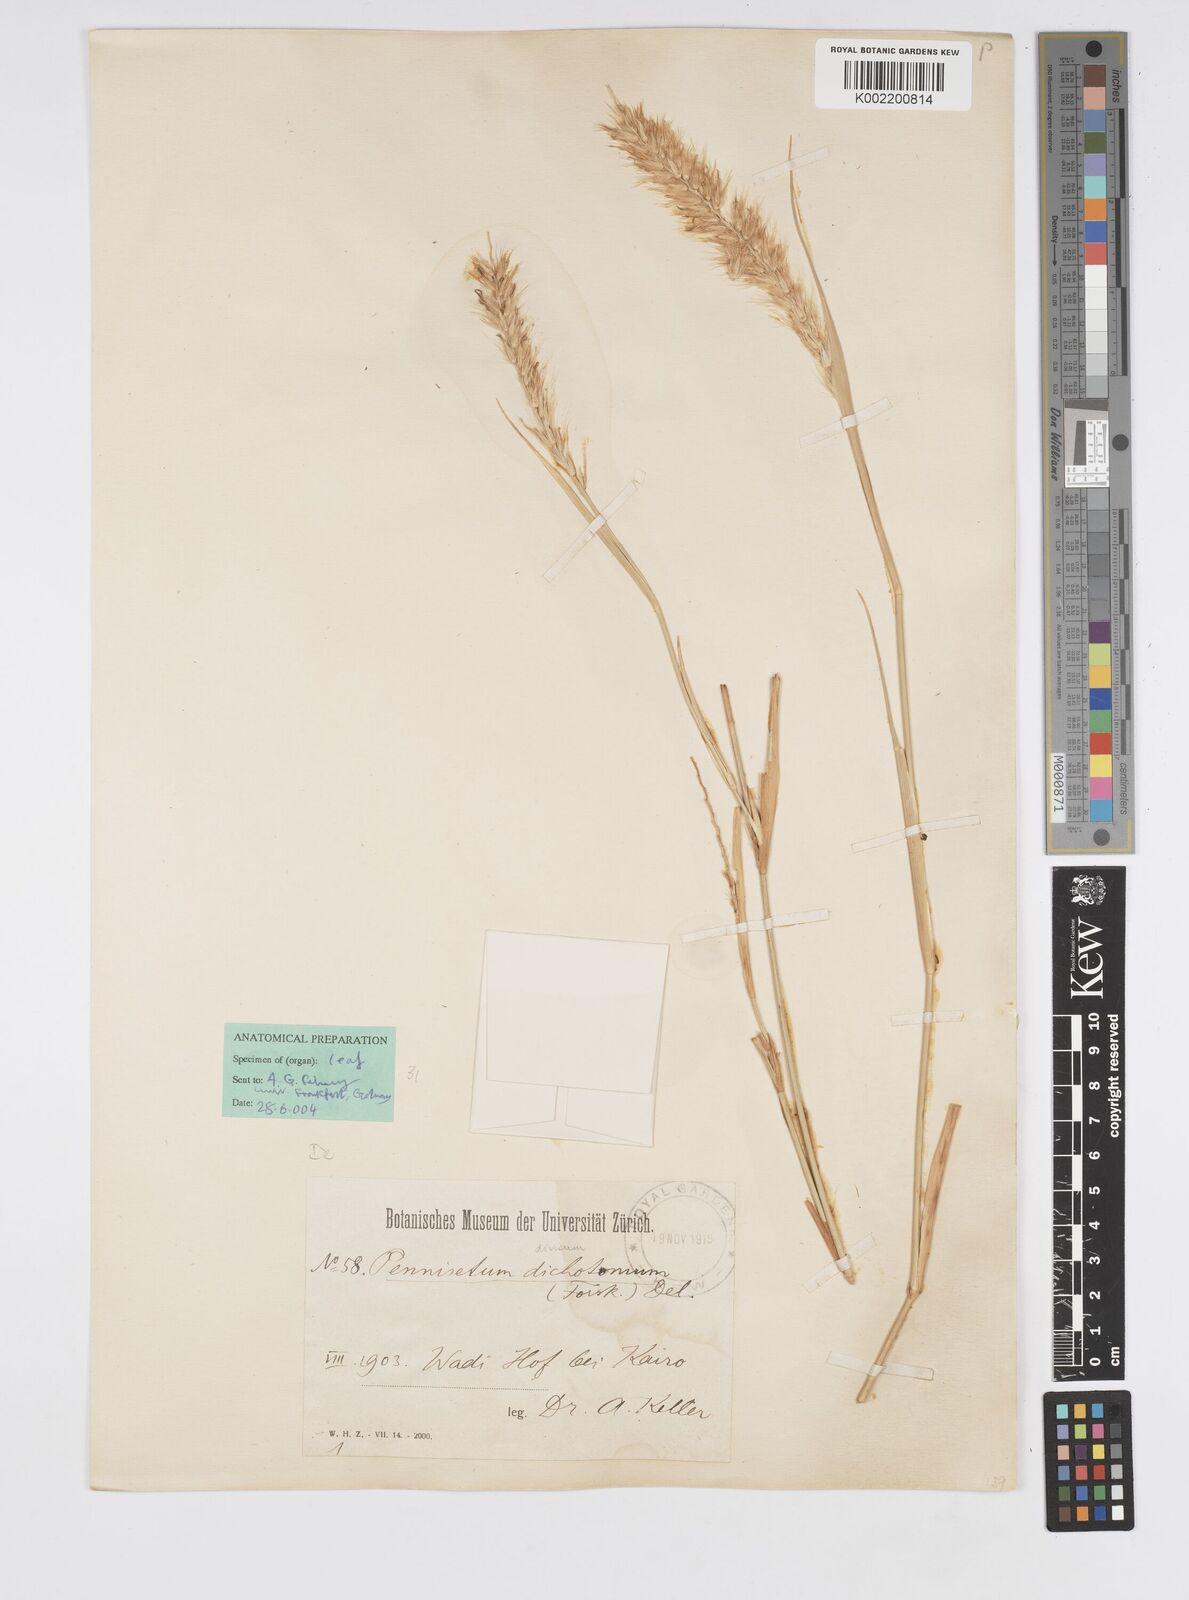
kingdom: Plantae
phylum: Tracheophyta
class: Liliopsida
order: Poales
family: Poaceae
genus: Cenchrus
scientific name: Cenchrus divisus
